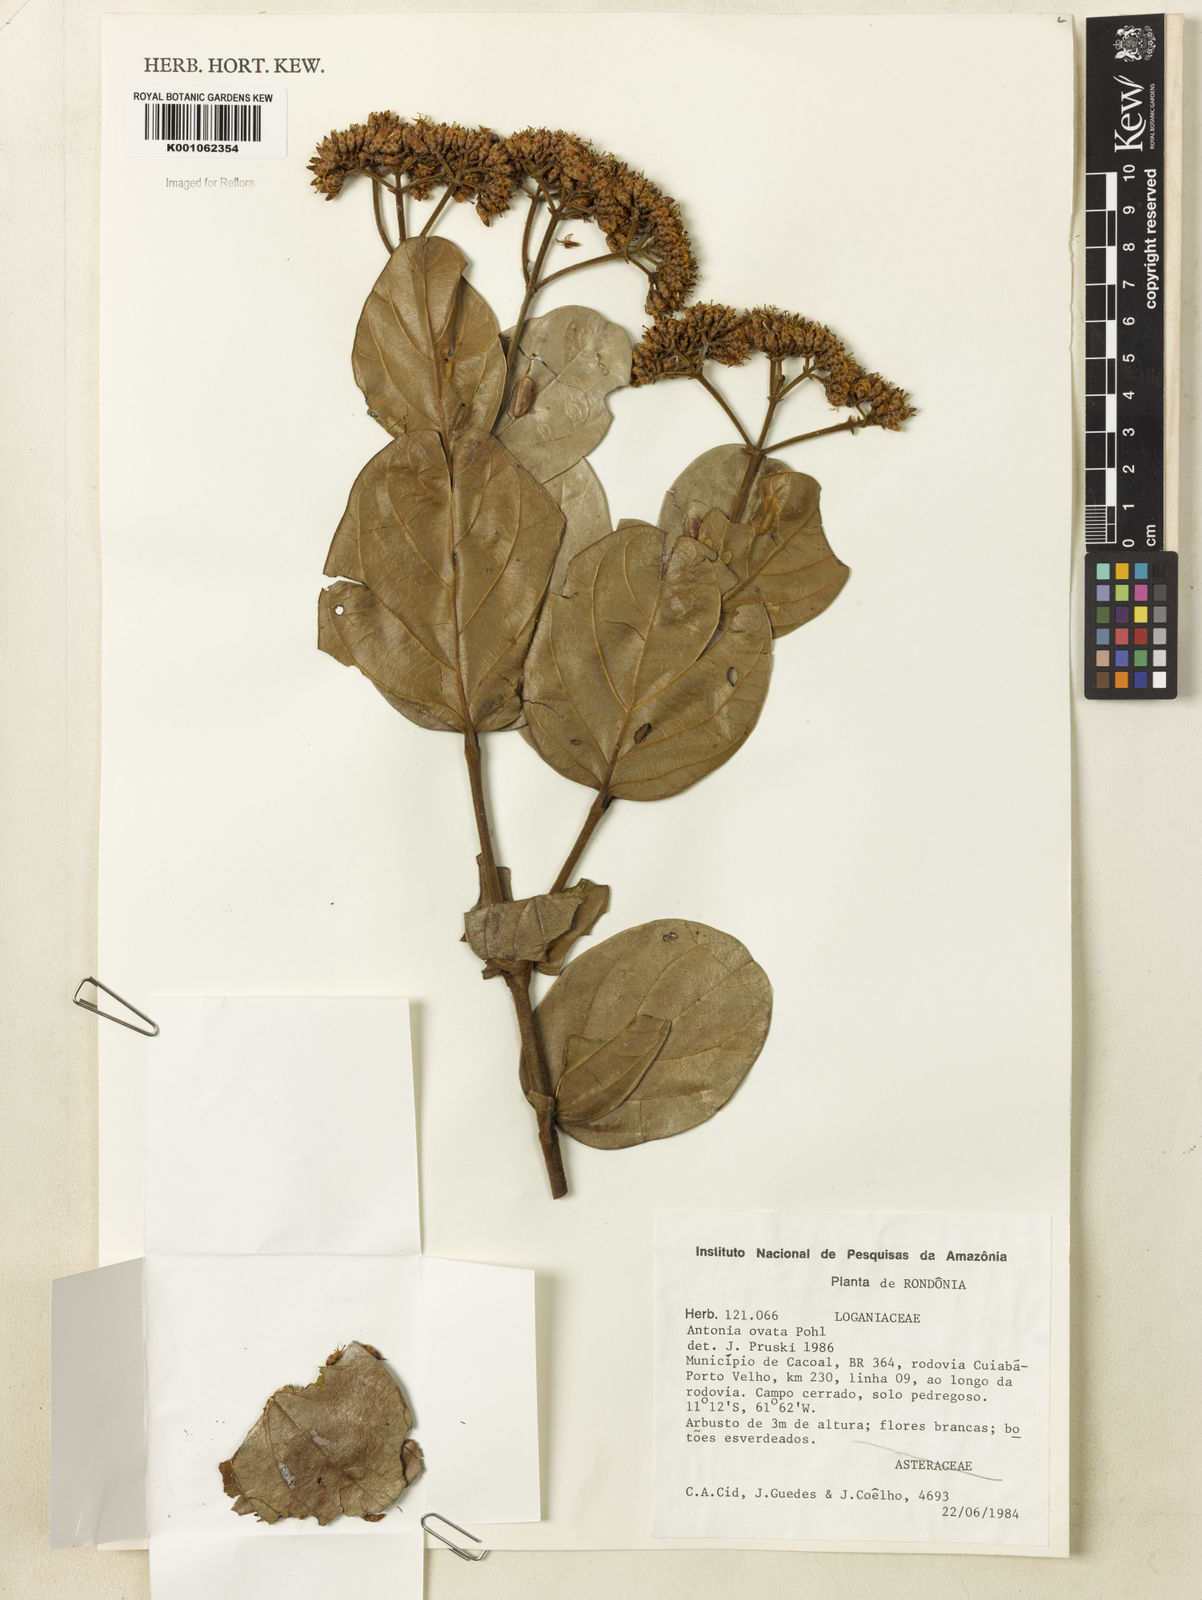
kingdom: Plantae
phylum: Tracheophyta
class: Magnoliopsida
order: Gentianales
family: Loganiaceae
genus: Antonia
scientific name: Antonia ovata
